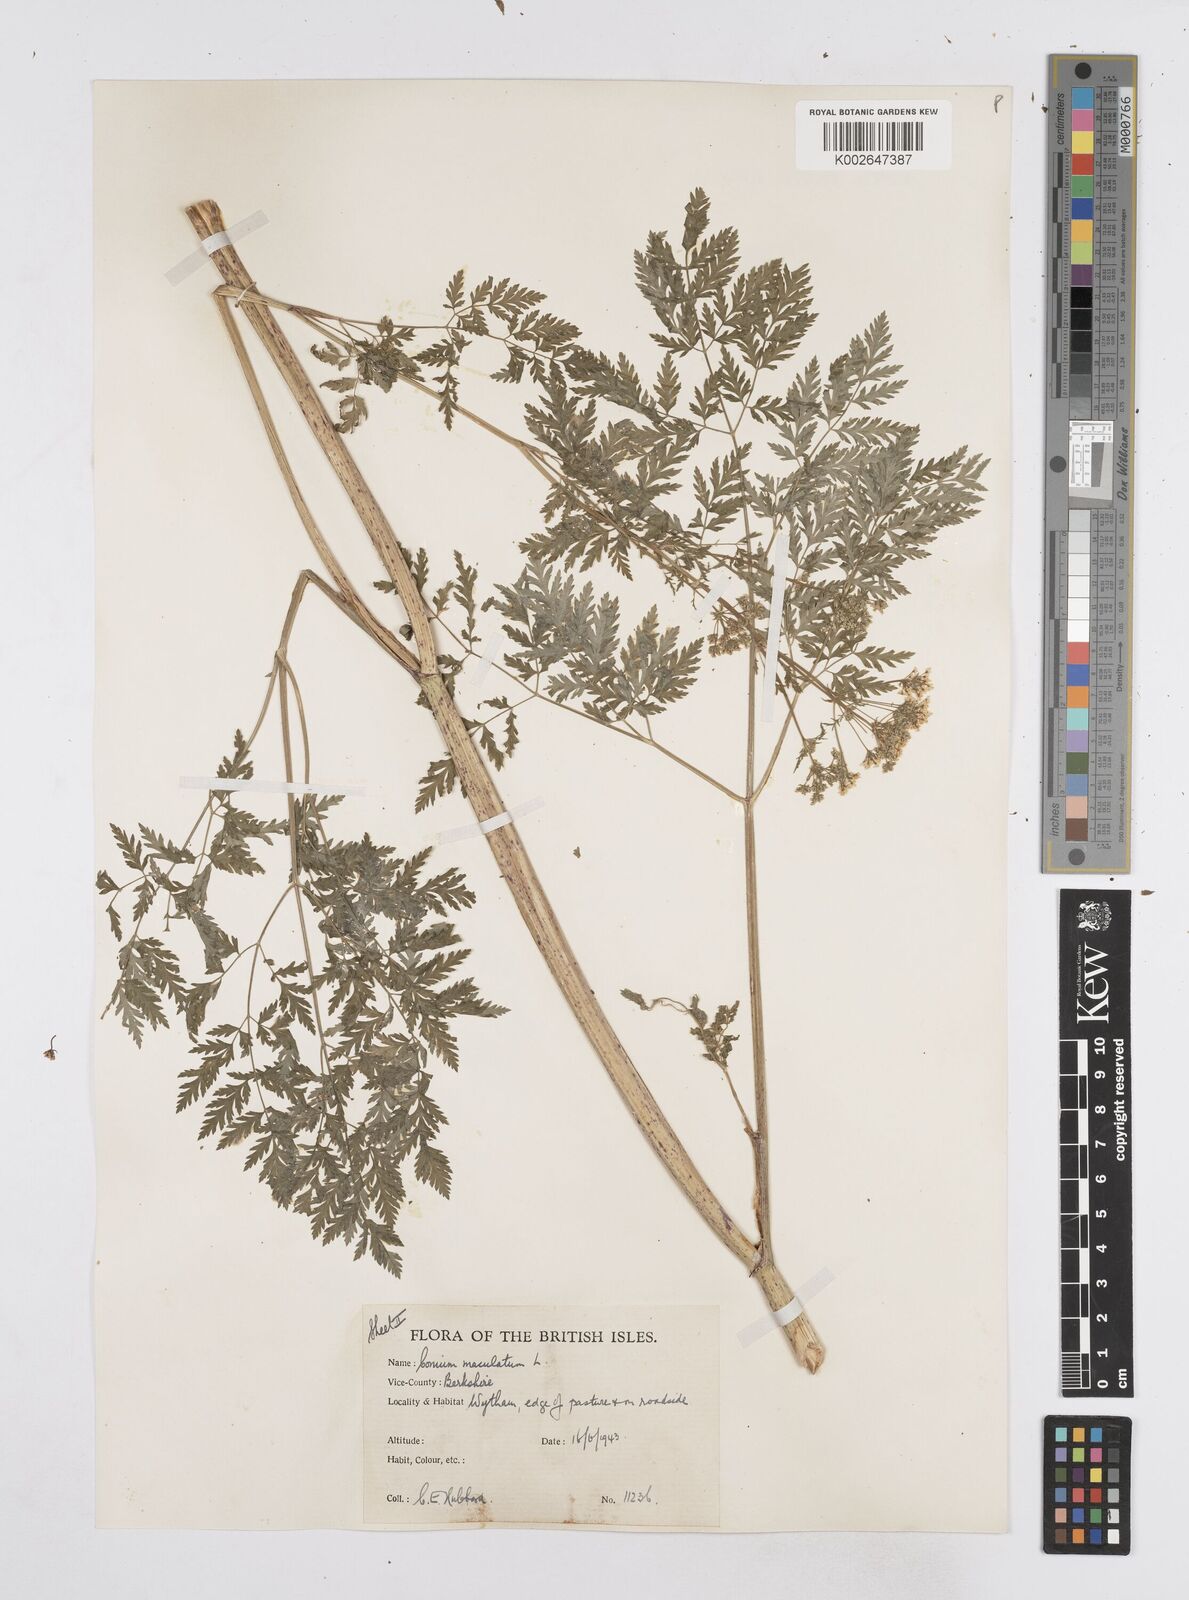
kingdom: Plantae
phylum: Tracheophyta
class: Magnoliopsida
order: Apiales
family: Apiaceae
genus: Conium
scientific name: Conium maculatum
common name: Hemlock
